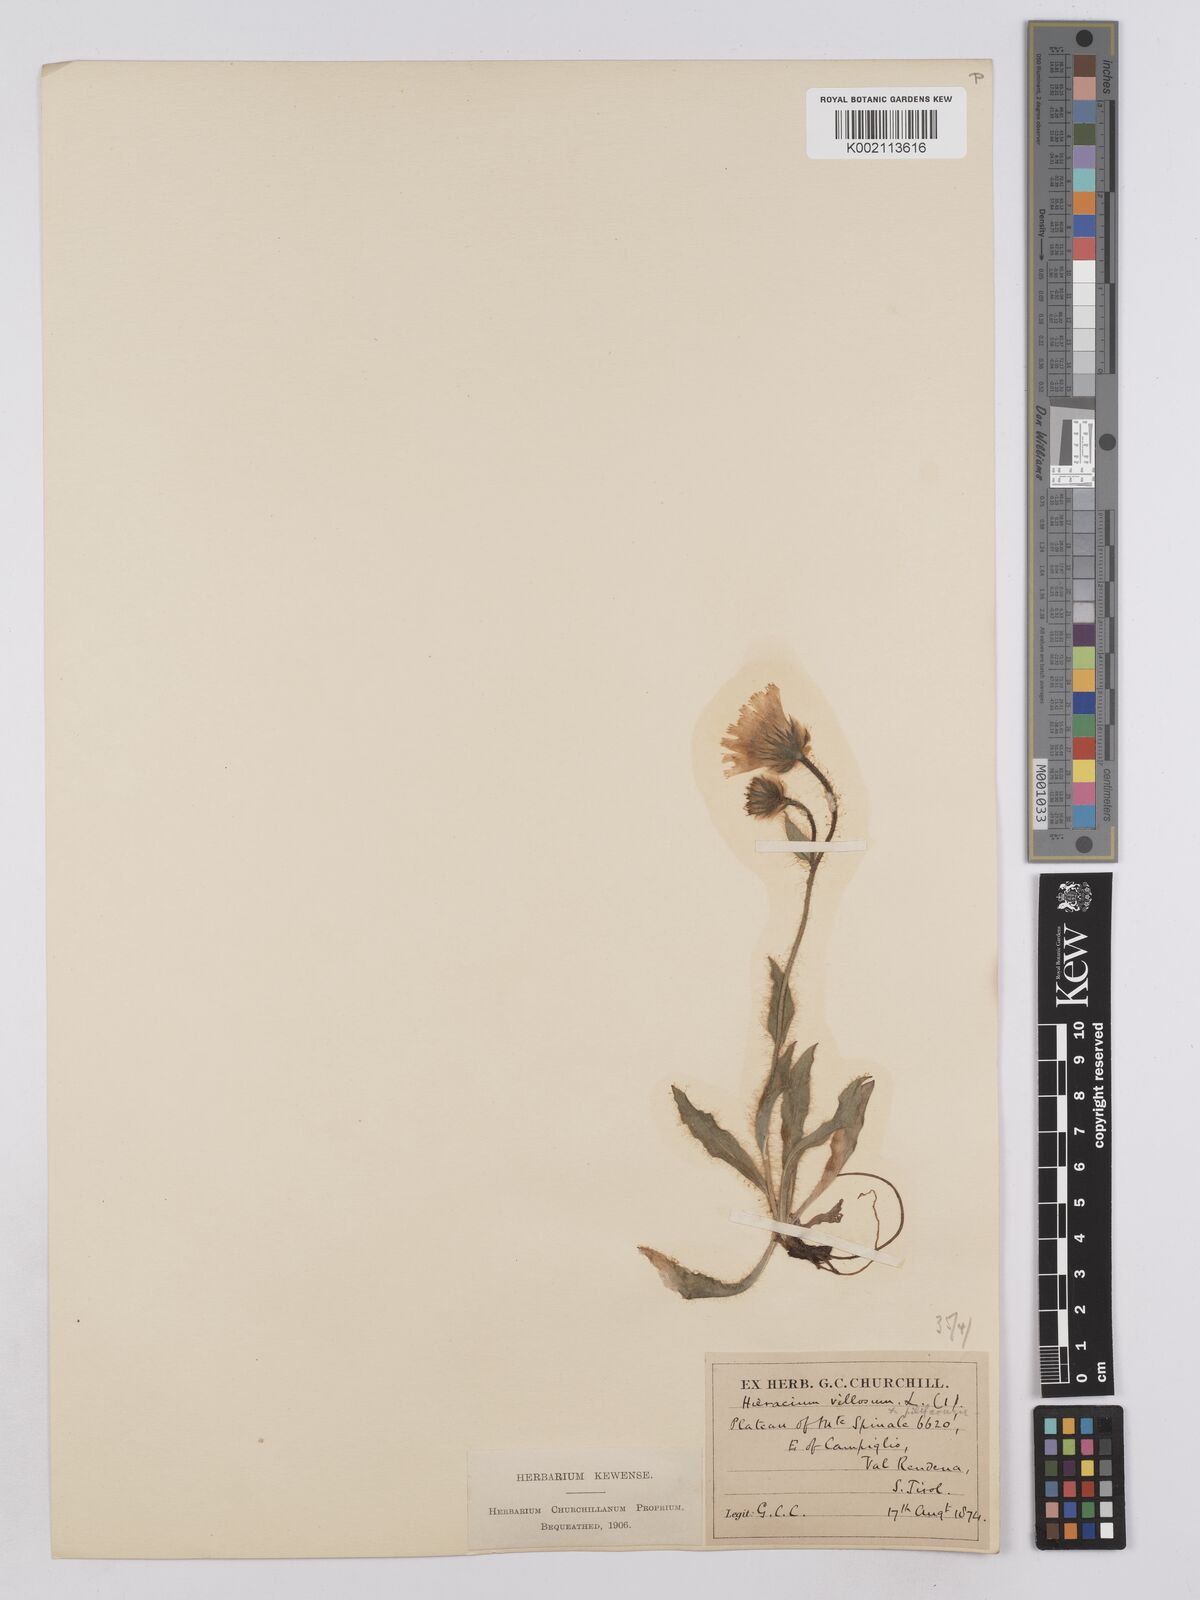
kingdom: Plantae
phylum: Tracheophyta
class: Magnoliopsida
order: Asterales
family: Asteraceae
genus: Hieracium
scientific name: Hieracium villosum
